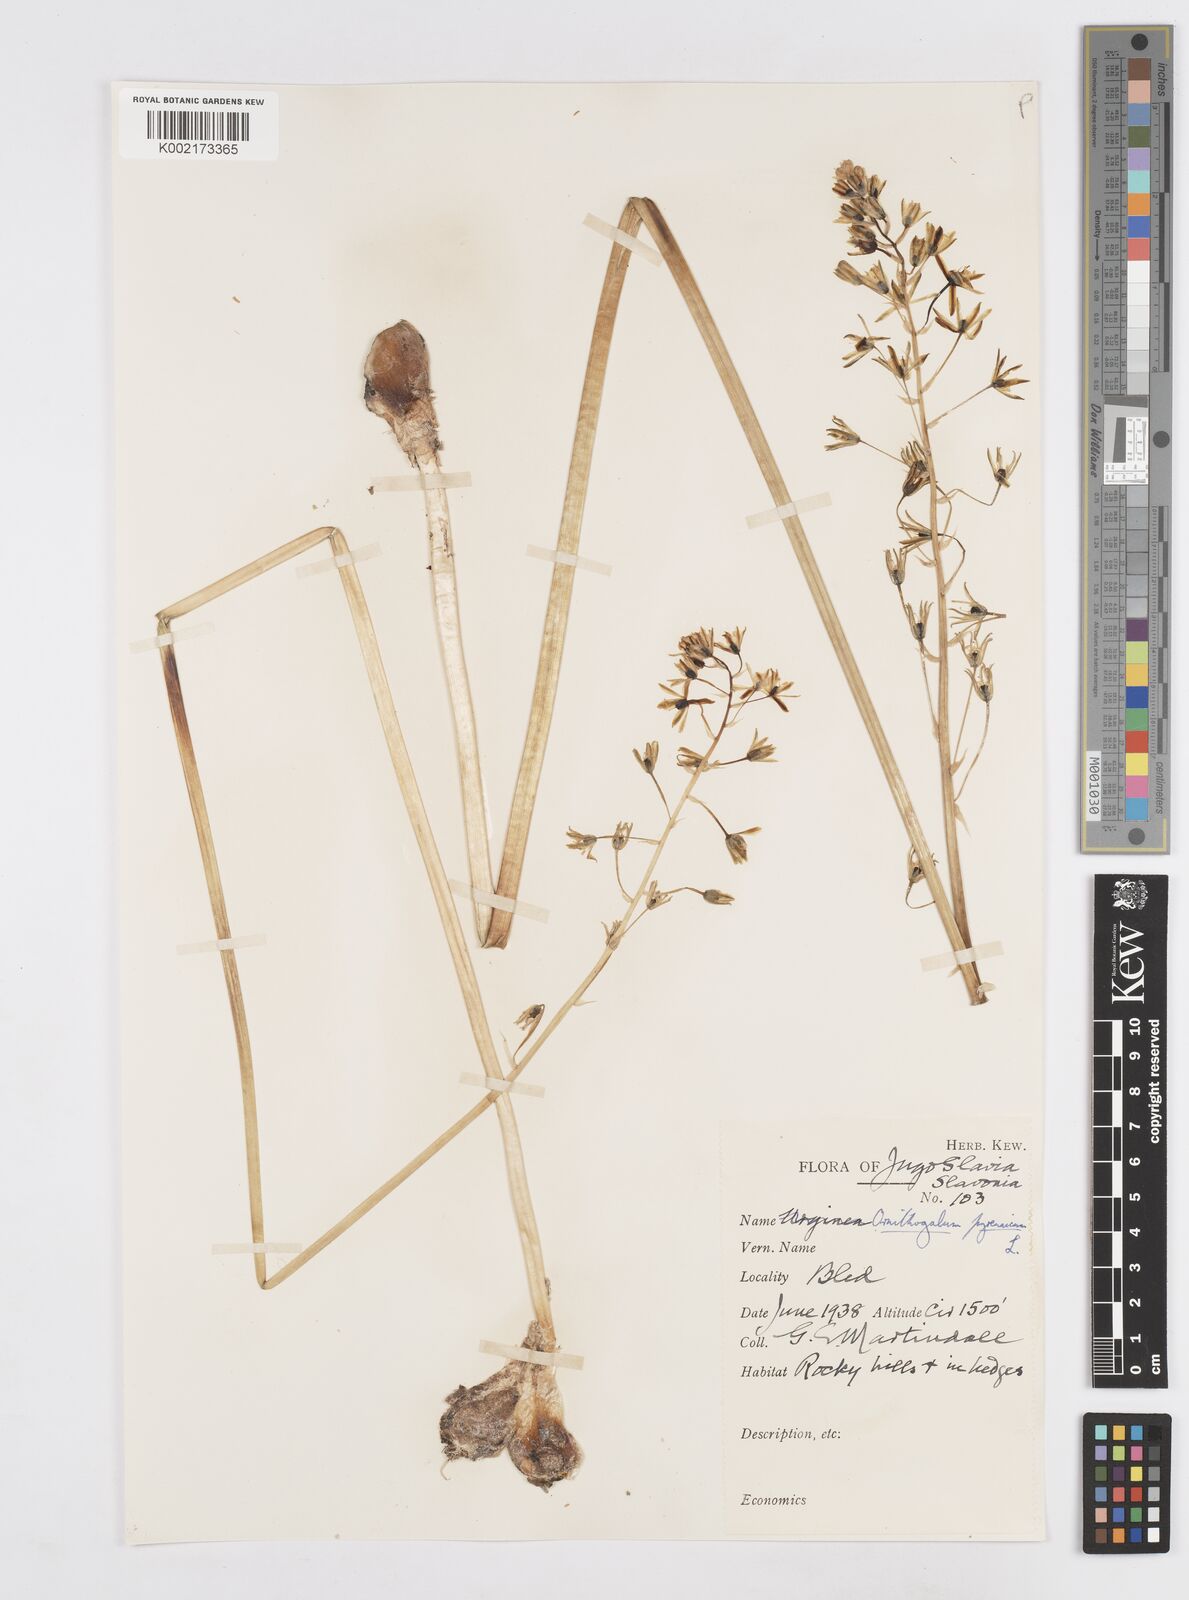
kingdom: Plantae
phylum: Tracheophyta
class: Liliopsida
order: Asparagales
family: Asparagaceae
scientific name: Asparagaceae
